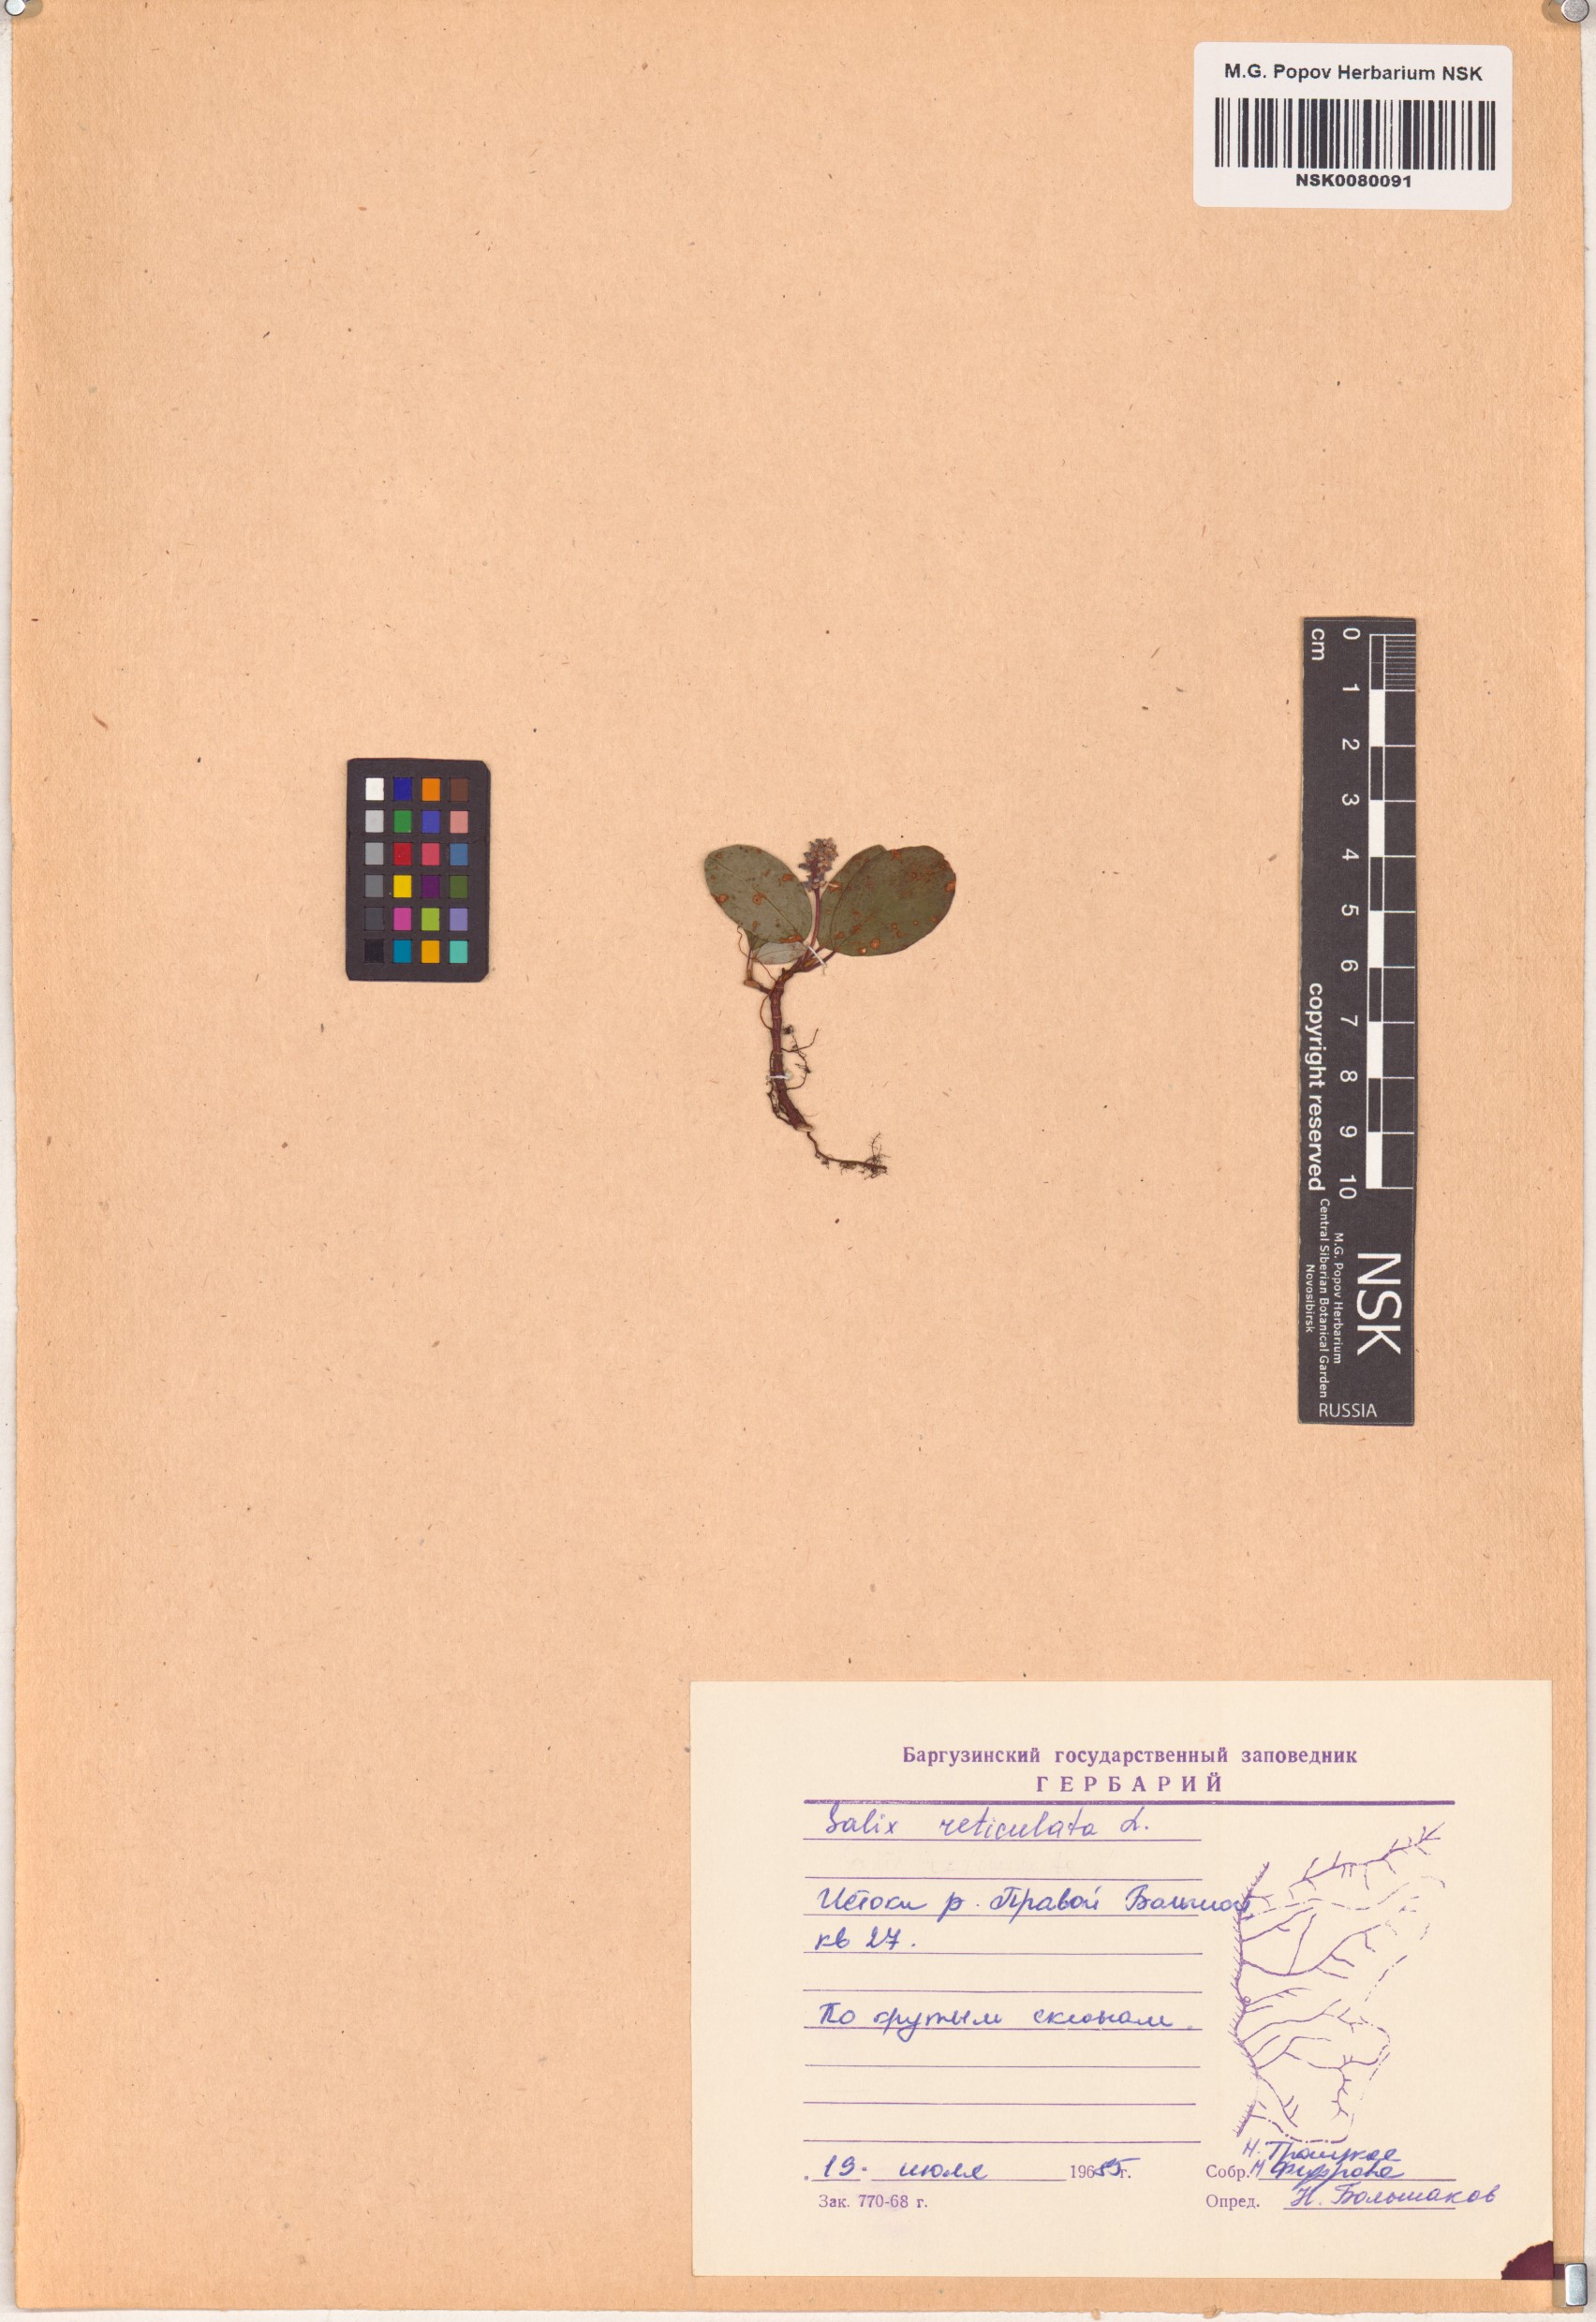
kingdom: Plantae
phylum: Tracheophyta
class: Magnoliopsida
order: Malpighiales
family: Salicaceae
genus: Salix
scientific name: Salix reticulata
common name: Net-leaved willow
